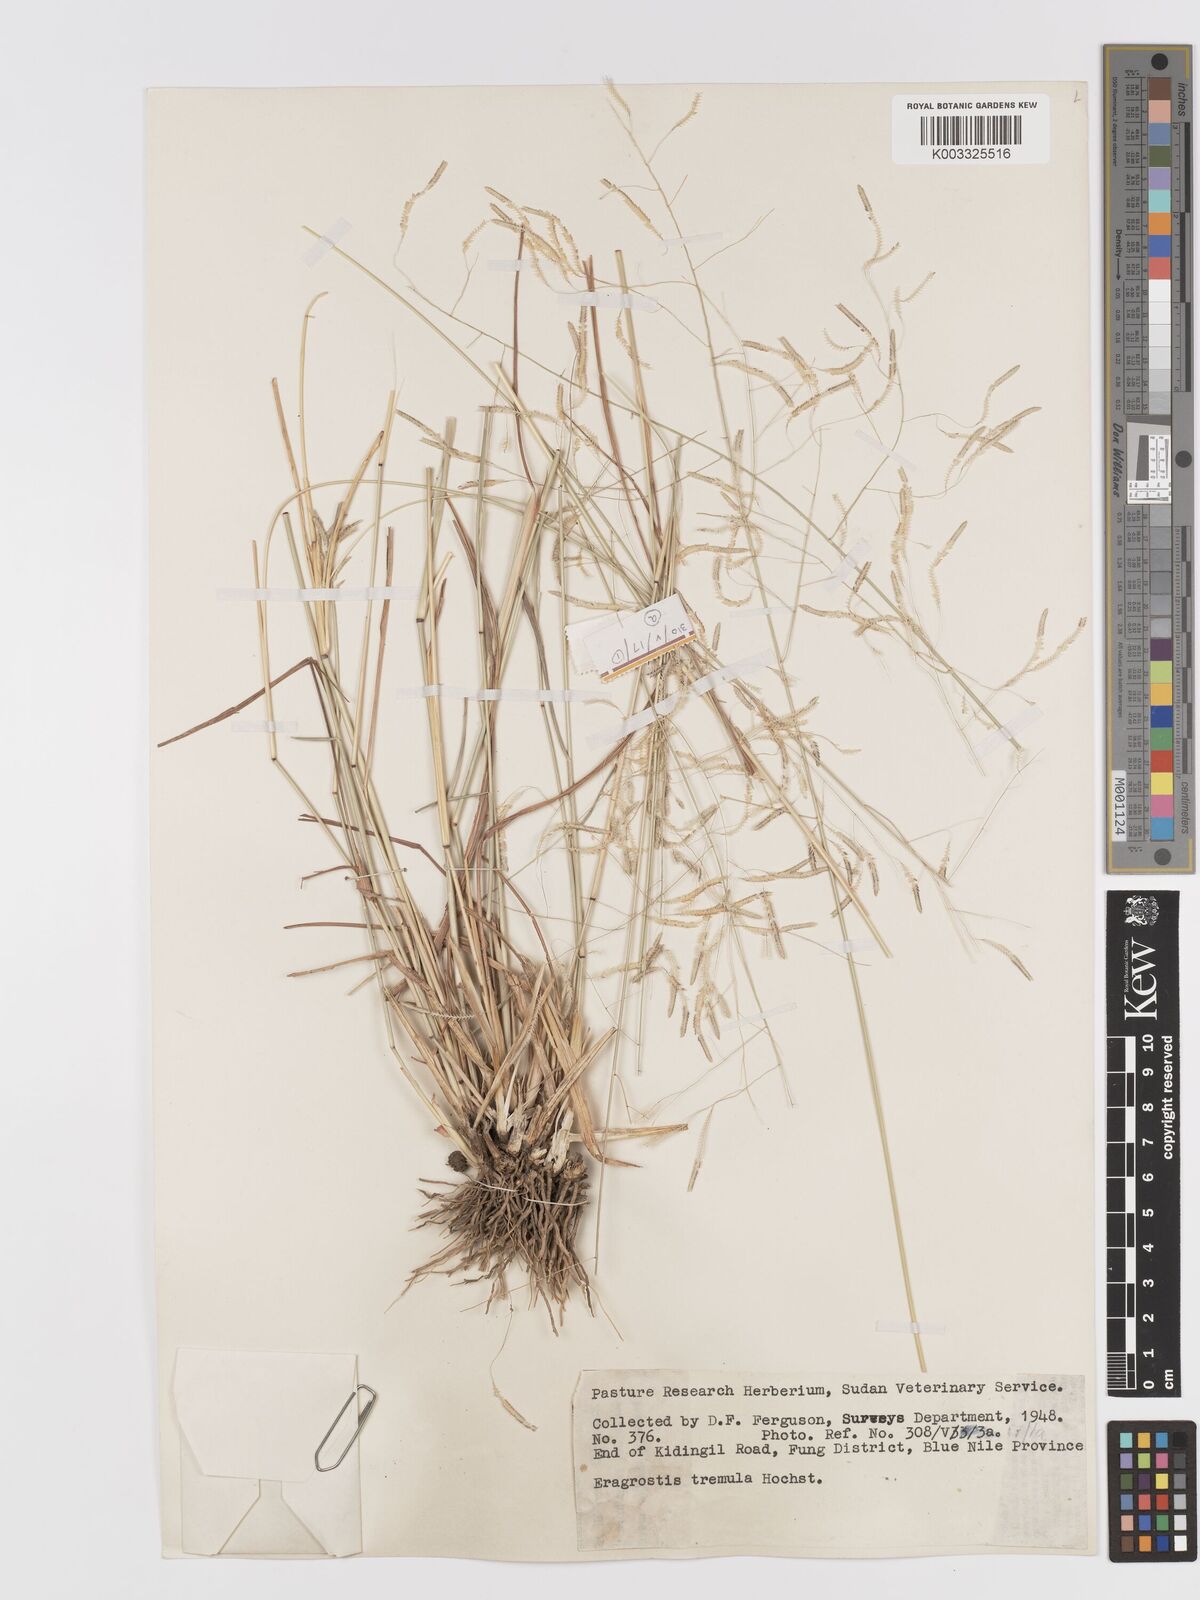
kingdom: Plantae
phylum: Tracheophyta
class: Liliopsida
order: Poales
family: Poaceae
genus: Eragrostis
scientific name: Eragrostis tremula
